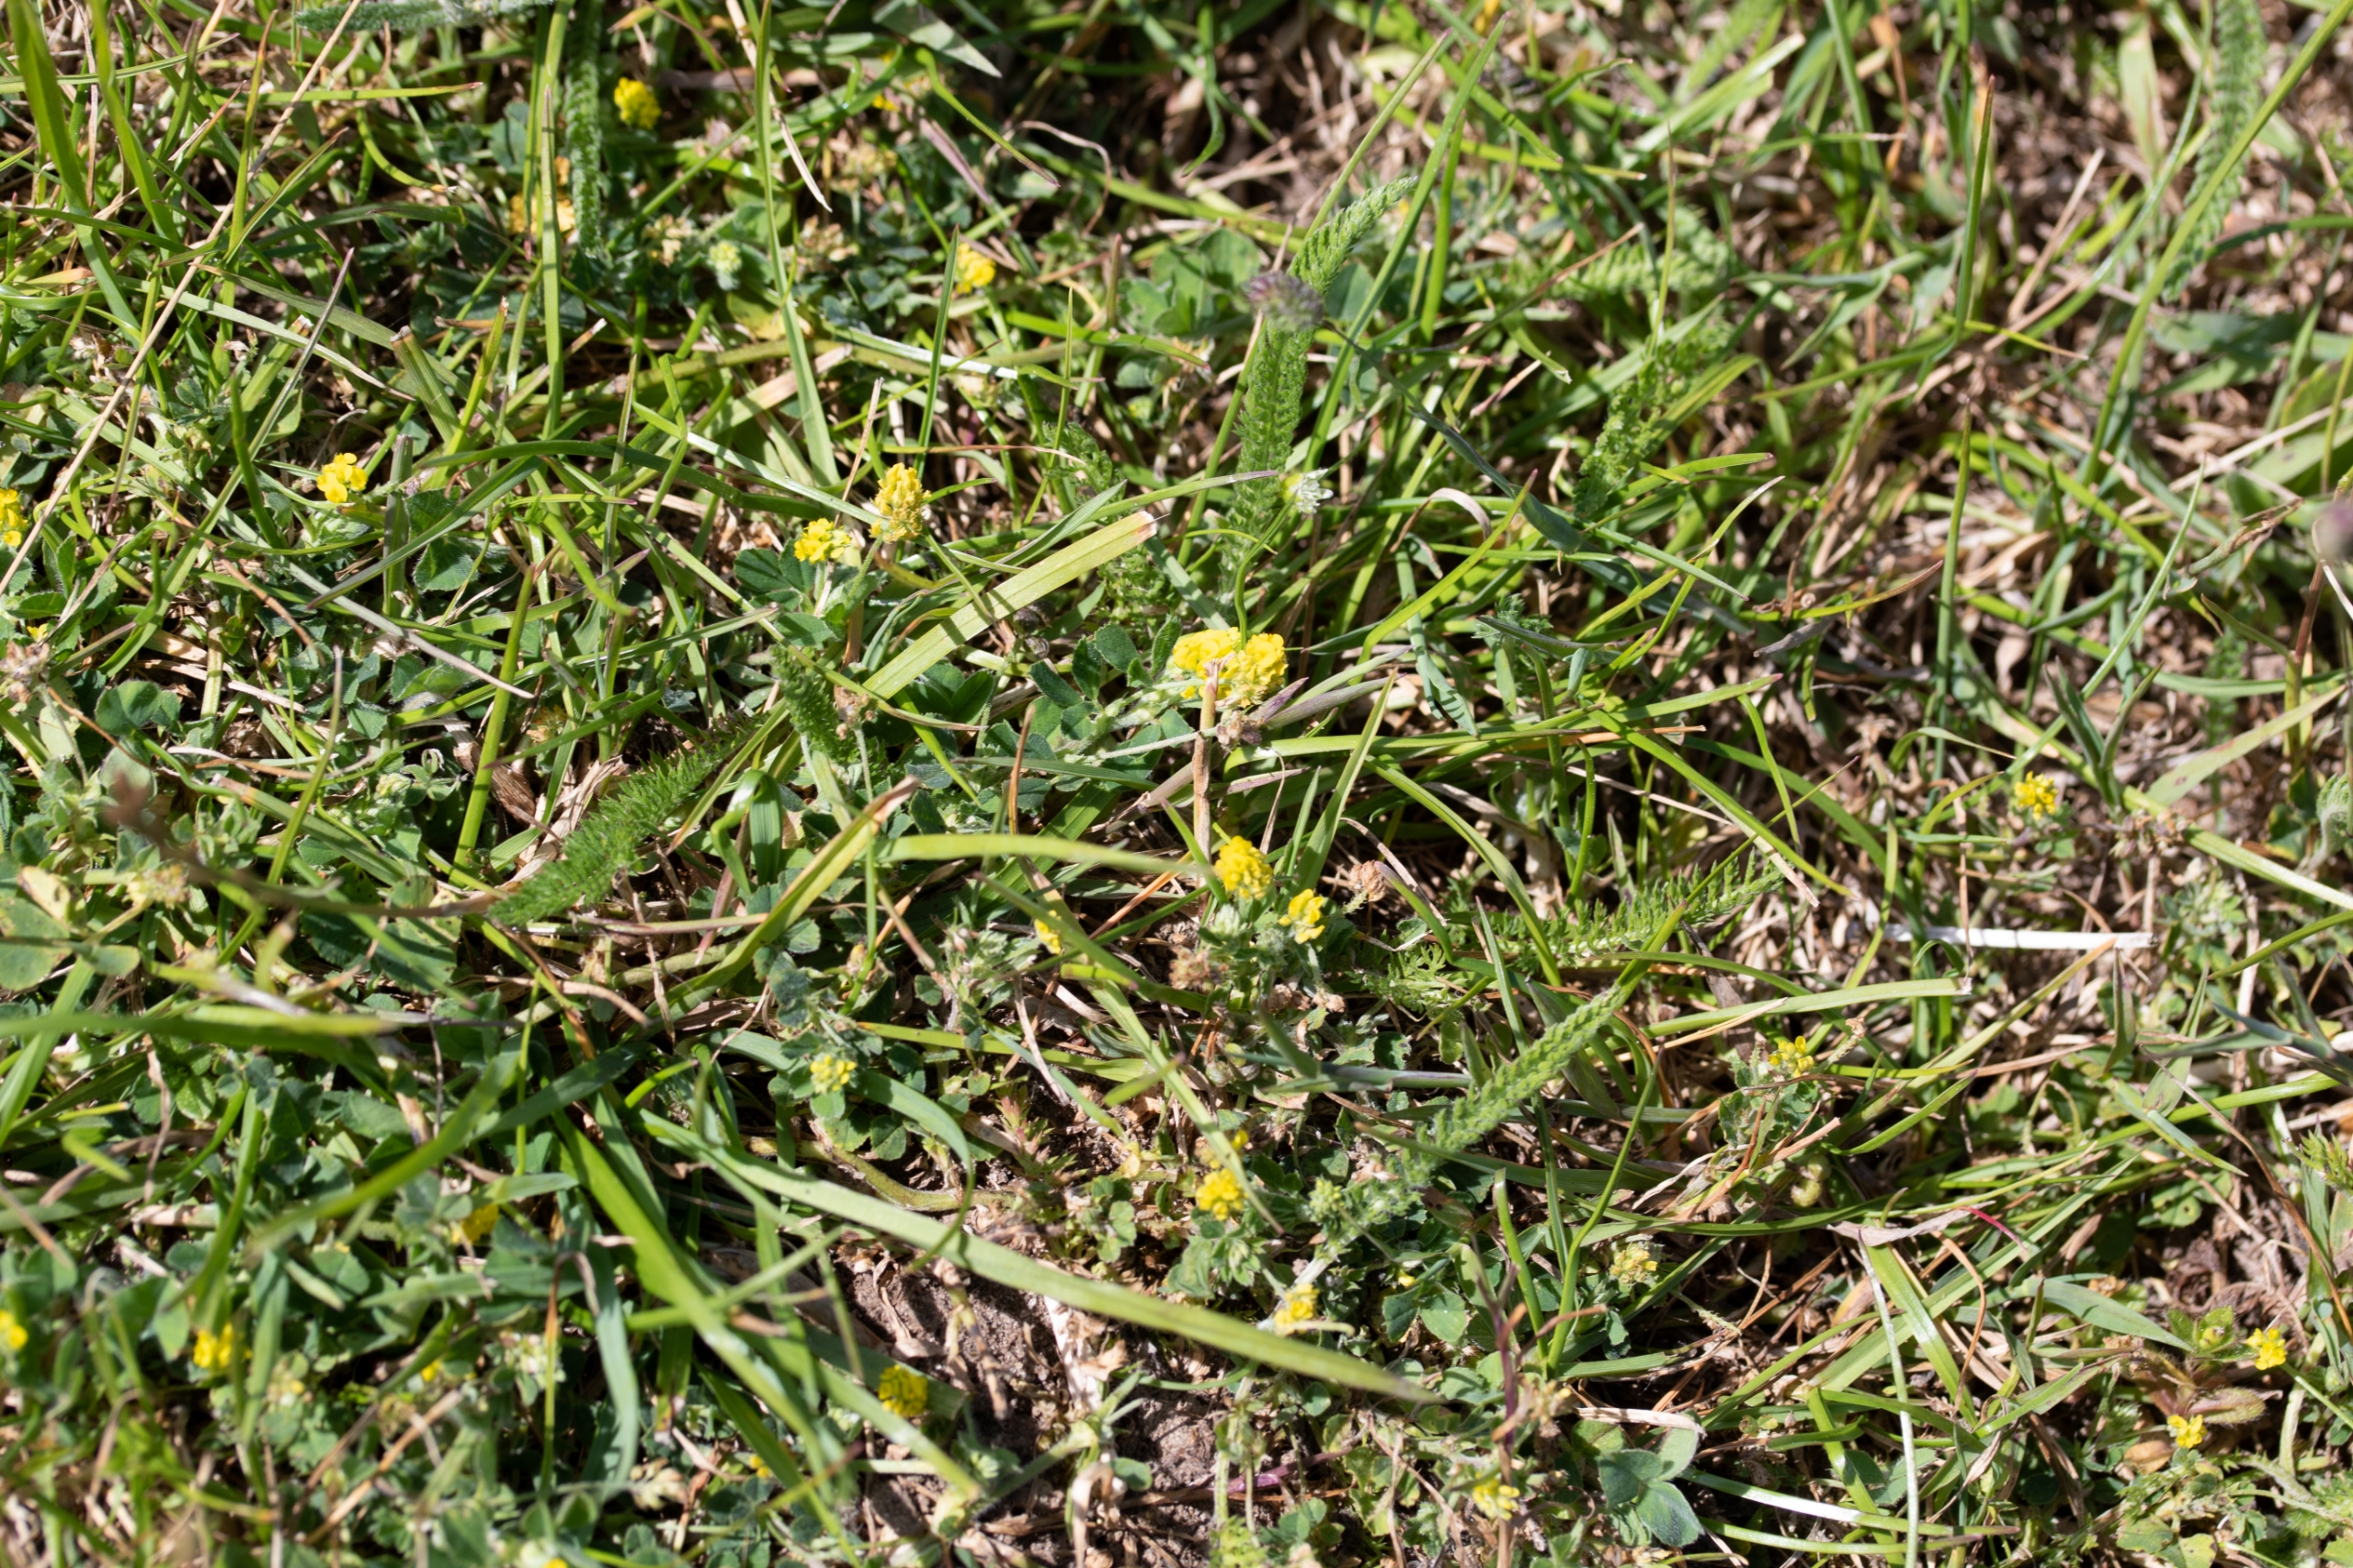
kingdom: Plantae
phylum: Tracheophyta
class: Magnoliopsida
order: Fabales
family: Fabaceae
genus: Medicago
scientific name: Medicago lupulina
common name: Humle-sneglebælg
